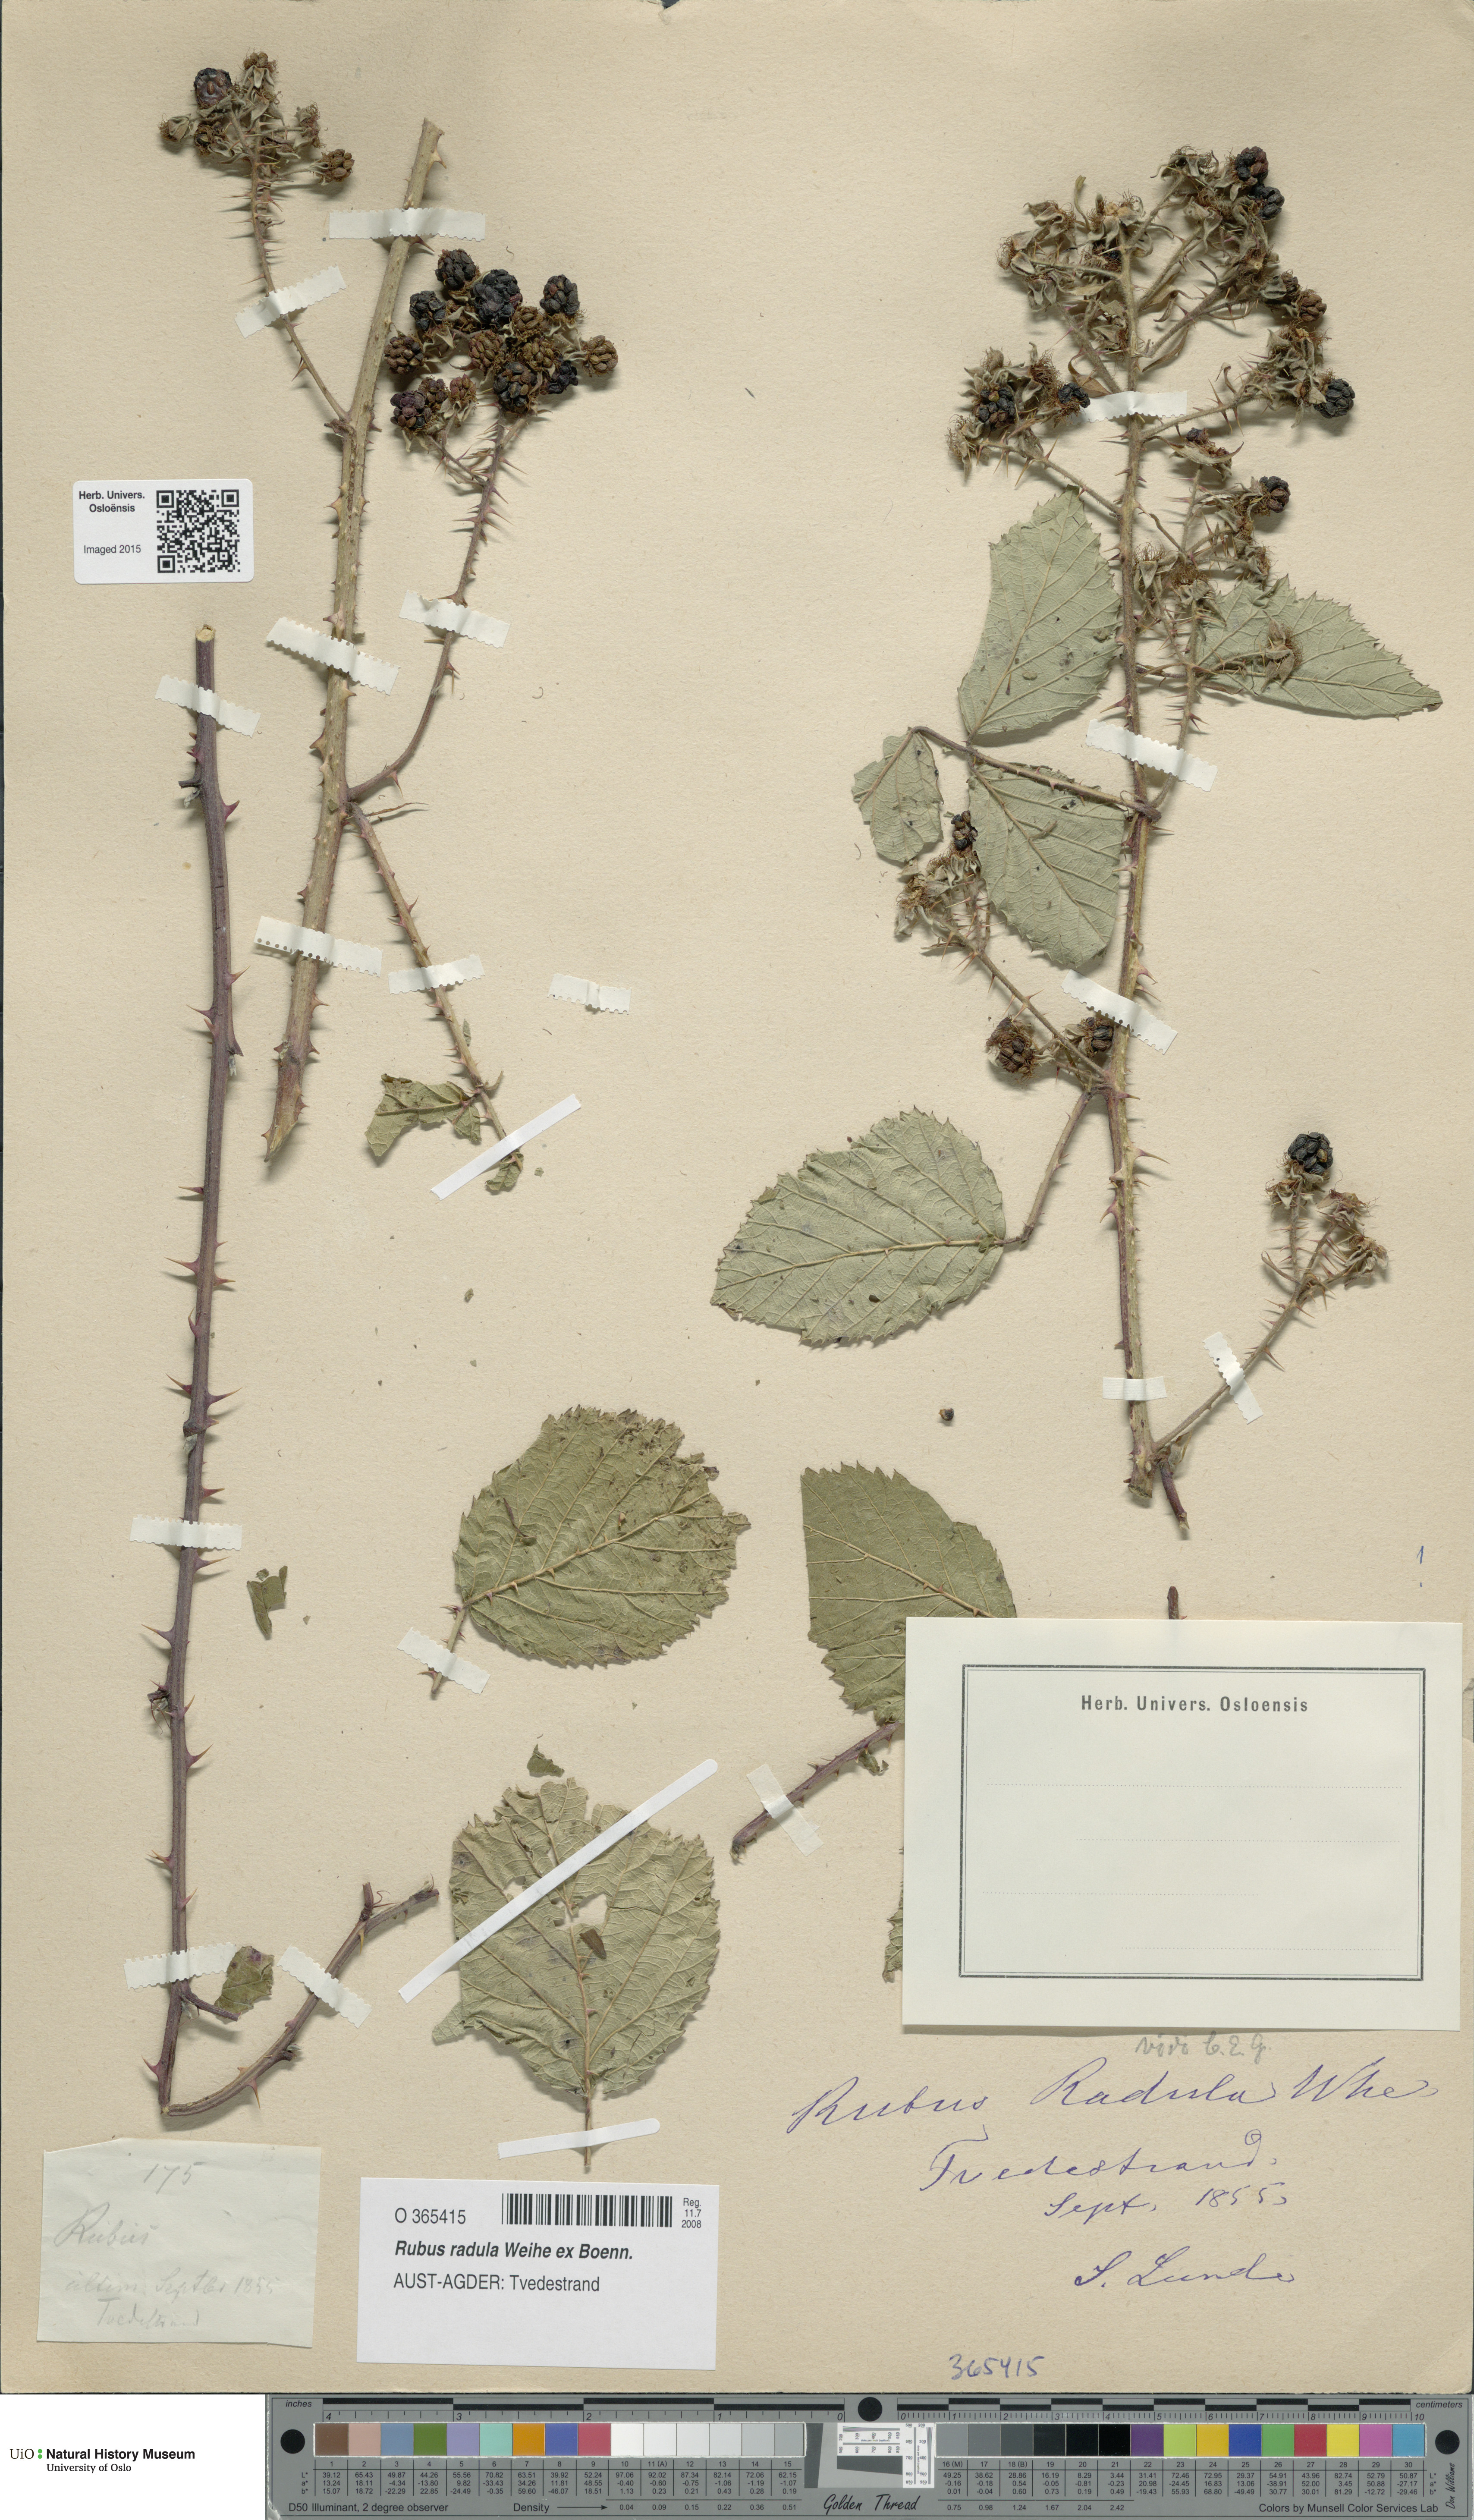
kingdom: Plantae
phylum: Tracheophyta
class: Magnoliopsida
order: Rosales
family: Rosaceae
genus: Rubus
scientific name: Rubus radula
